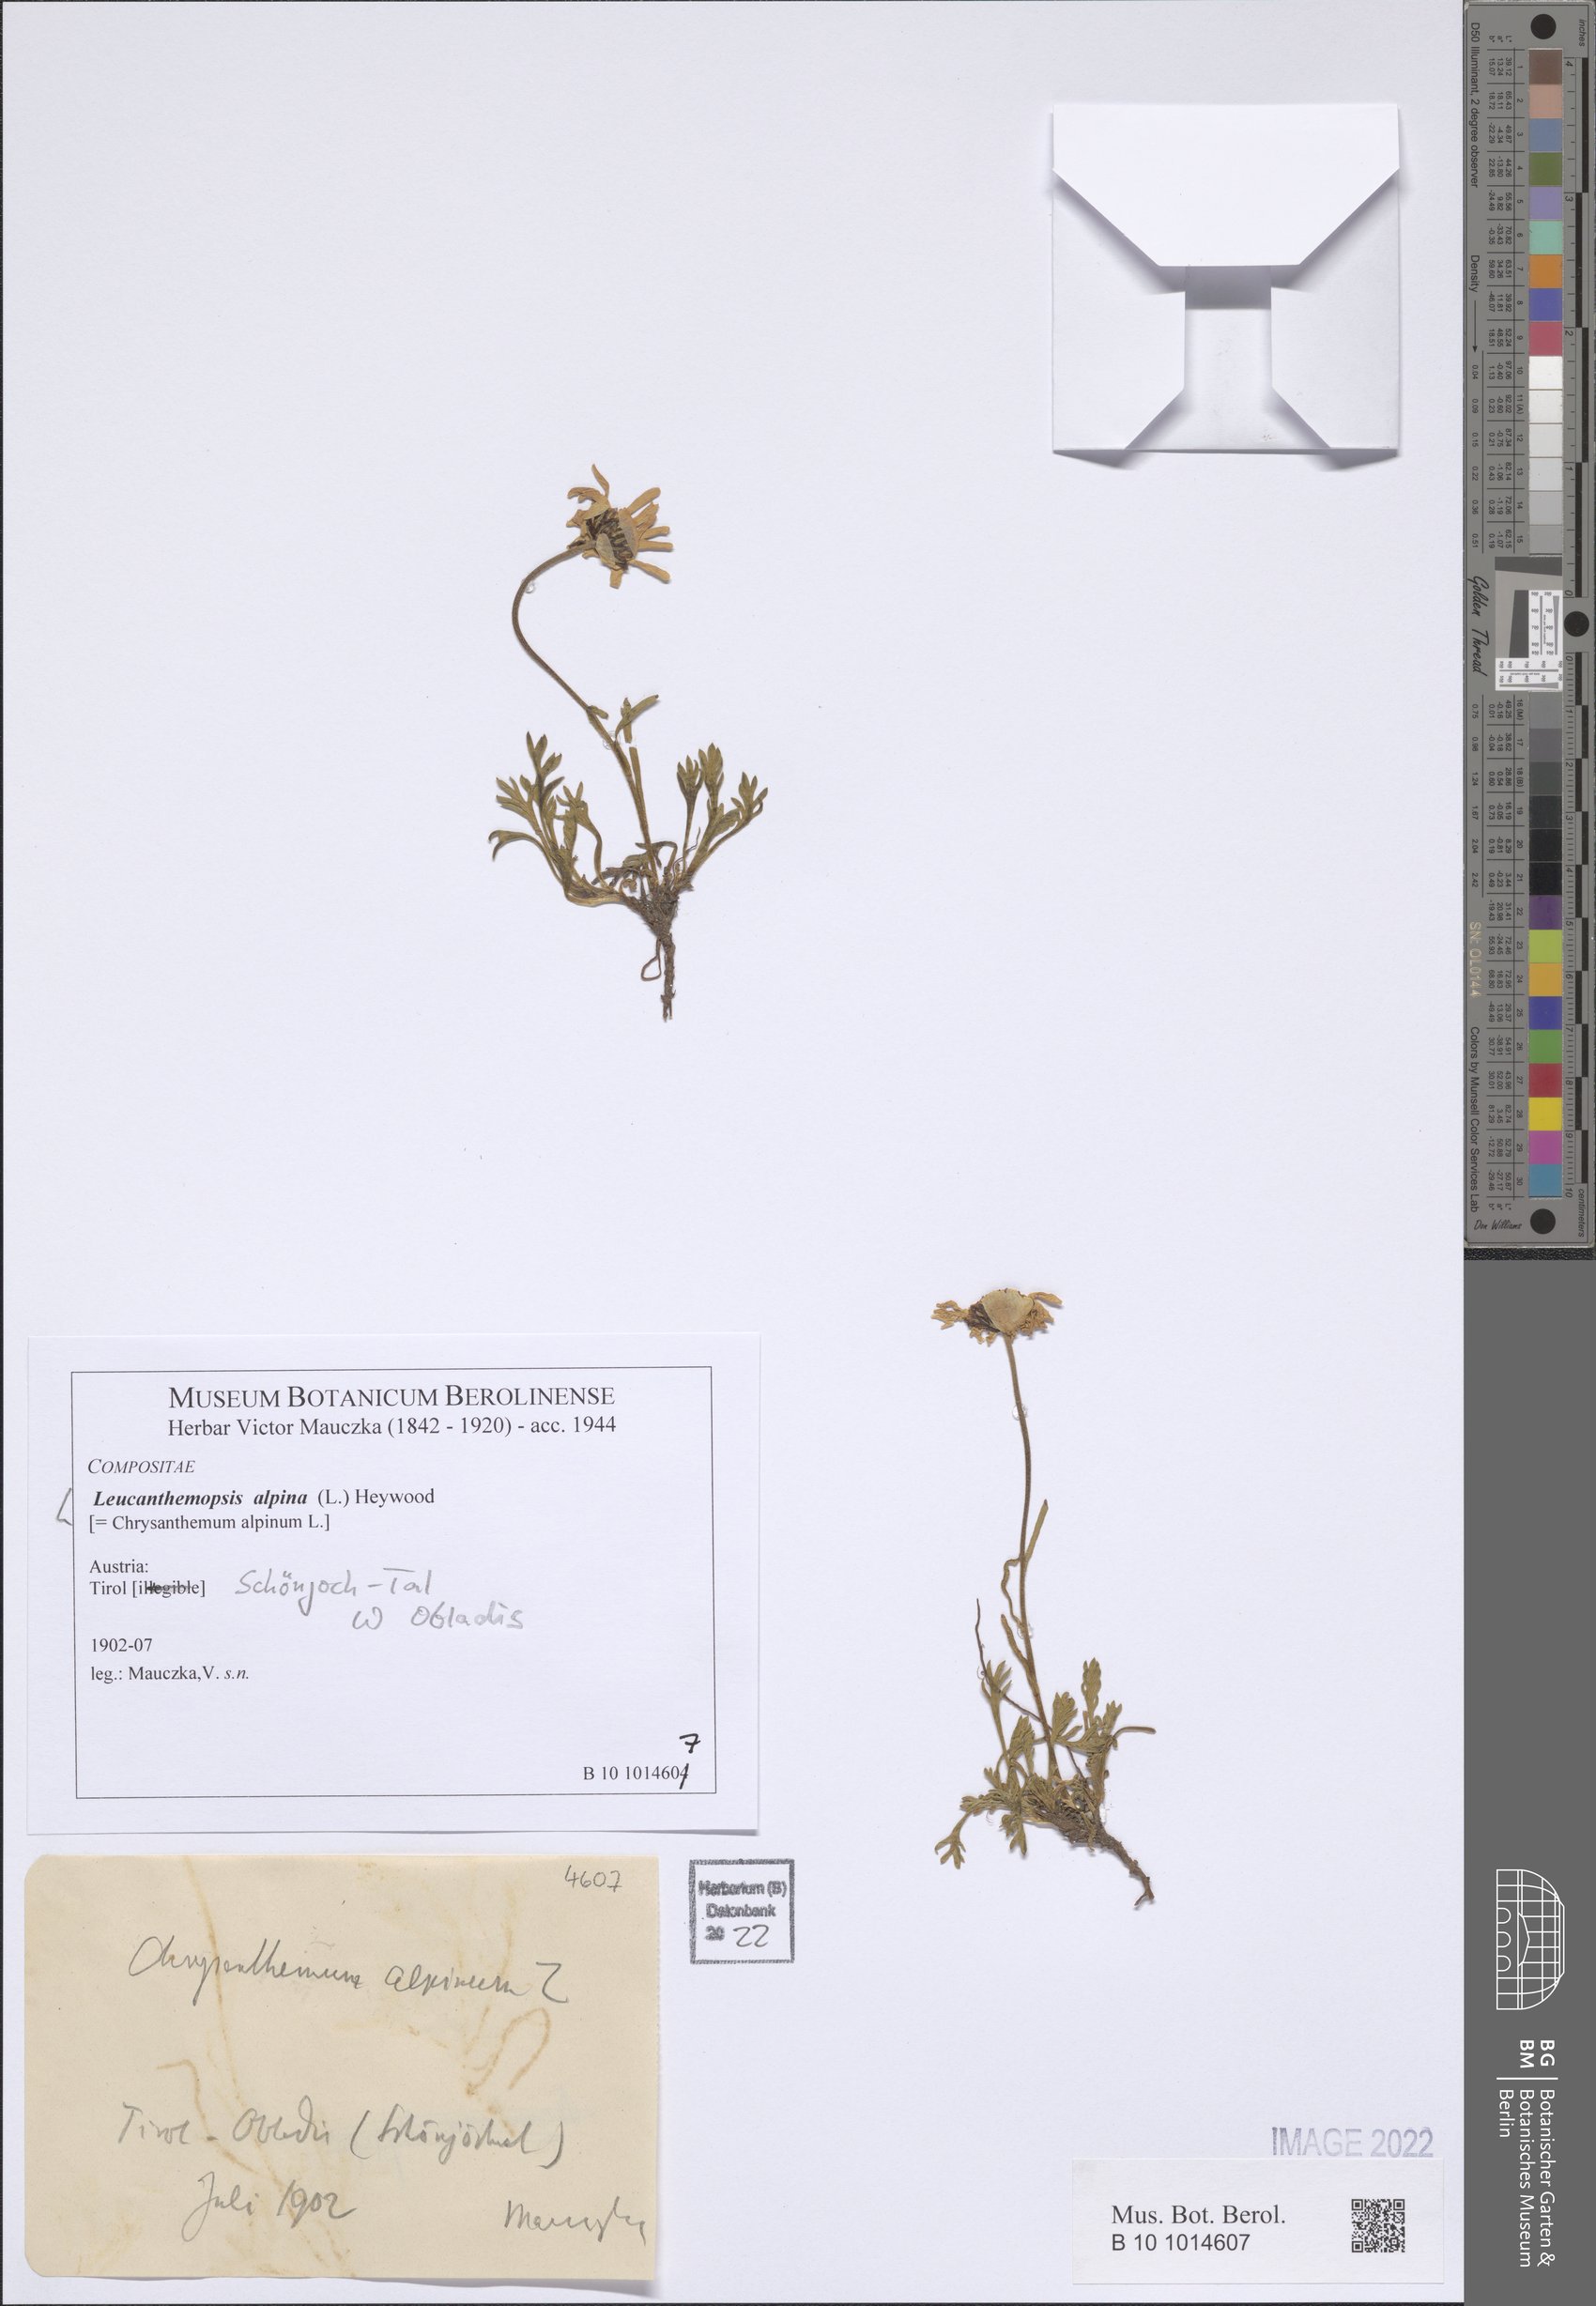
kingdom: Plantae
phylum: Tracheophyta
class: Magnoliopsida
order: Asterales
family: Asteraceae
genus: Leucanthemopsis
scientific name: Leucanthemopsis alpina
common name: Alpine moon daisy
